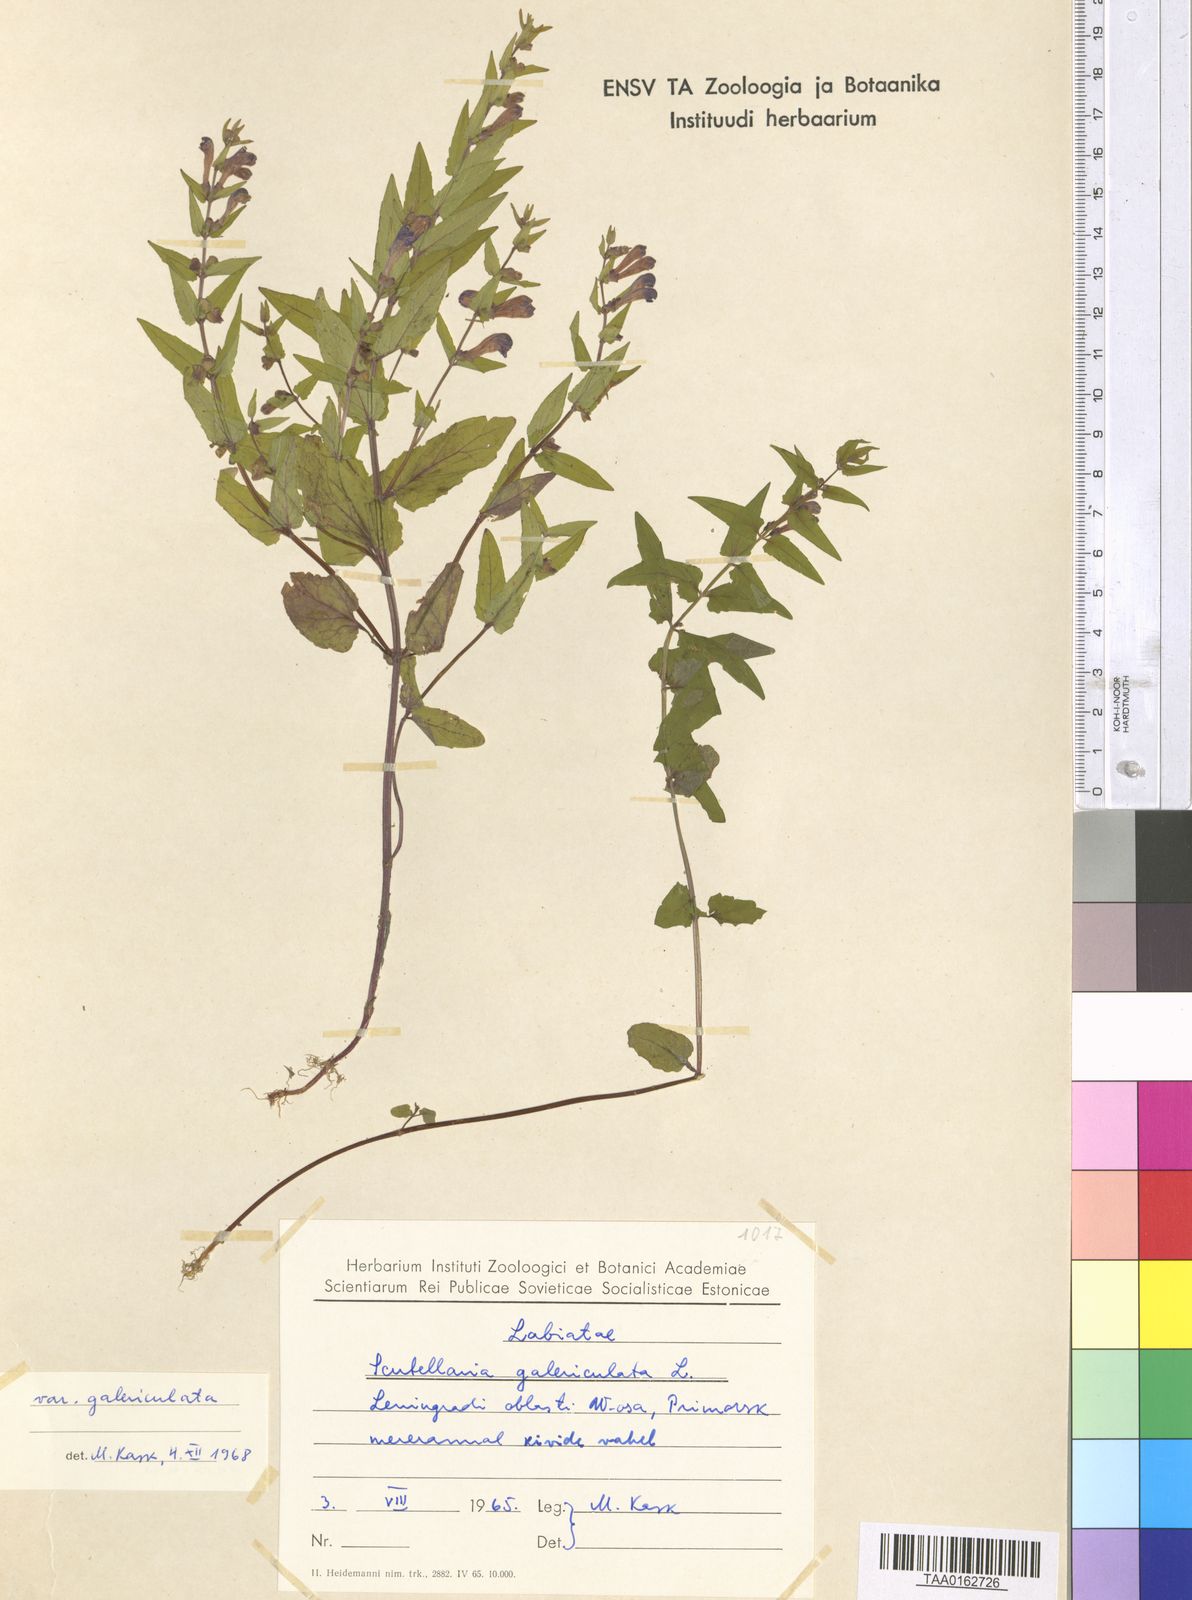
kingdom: Plantae
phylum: Tracheophyta
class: Magnoliopsida
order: Lamiales
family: Lamiaceae
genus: Scutellaria
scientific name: Scutellaria galericulata
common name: Skullcap
